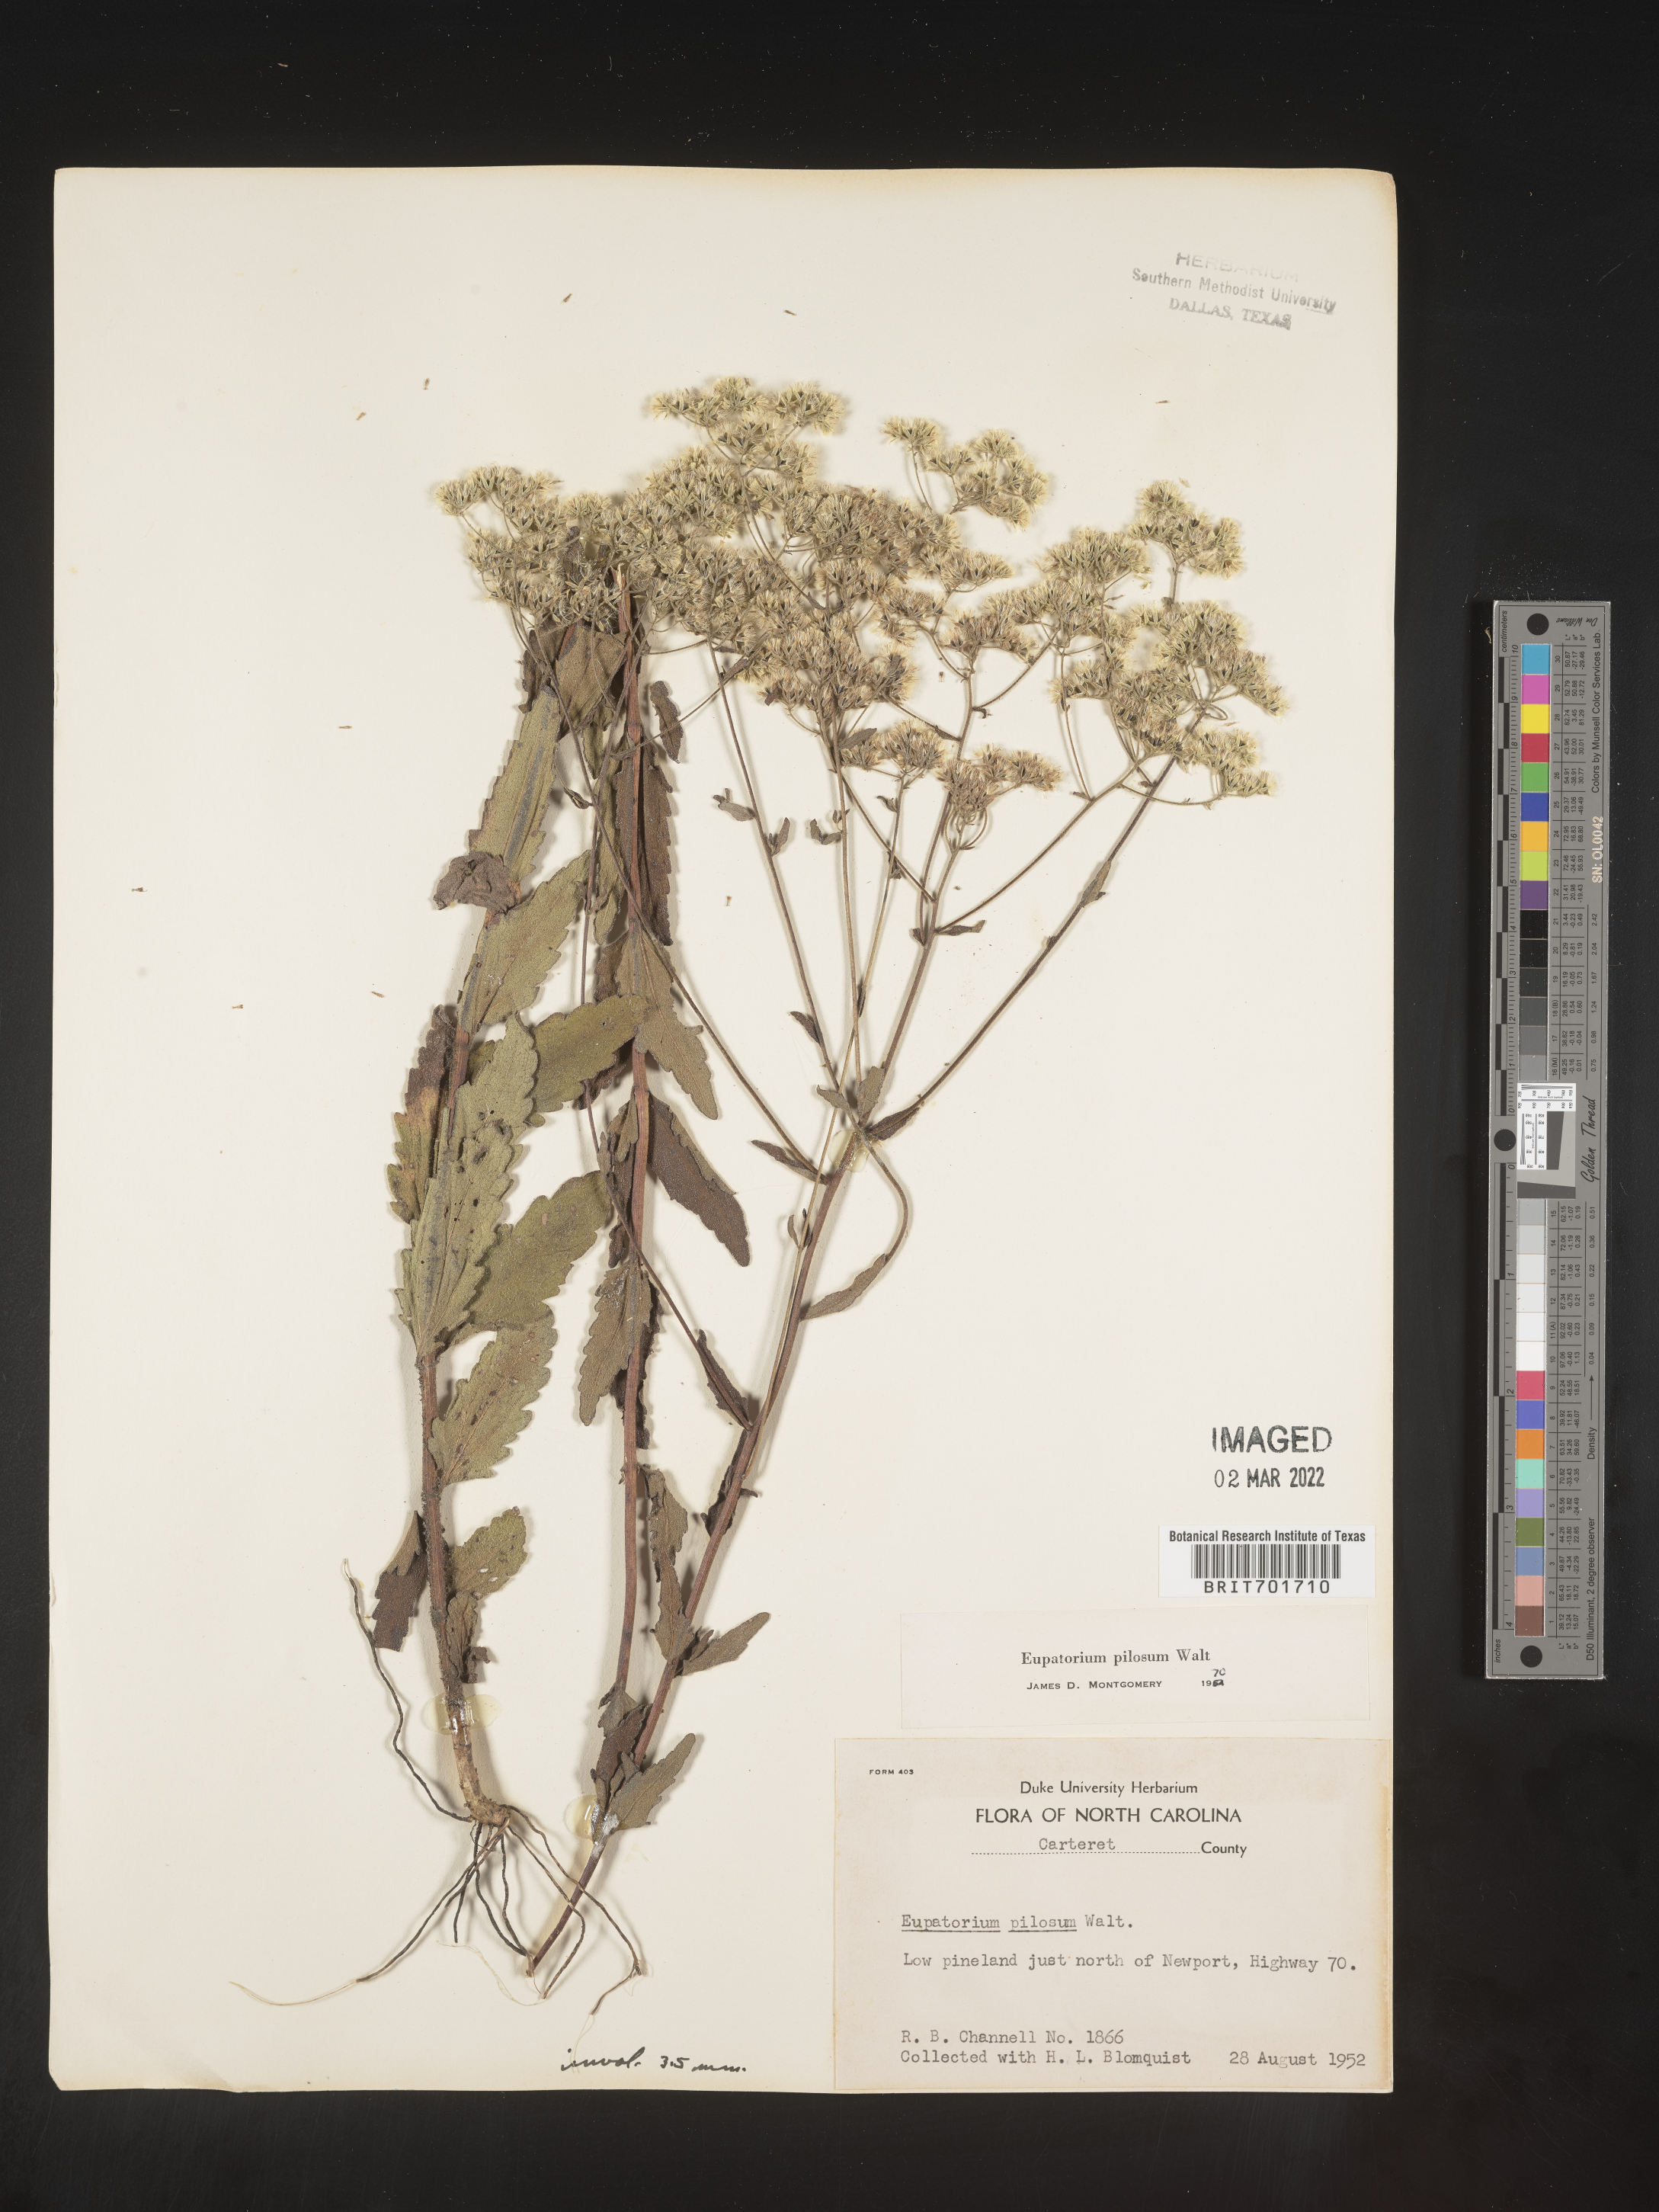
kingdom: Plantae
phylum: Tracheophyta
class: Magnoliopsida
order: Asterales
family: Asteraceae
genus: Eupatorium
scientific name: Eupatorium pilosum
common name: Rough boneset
